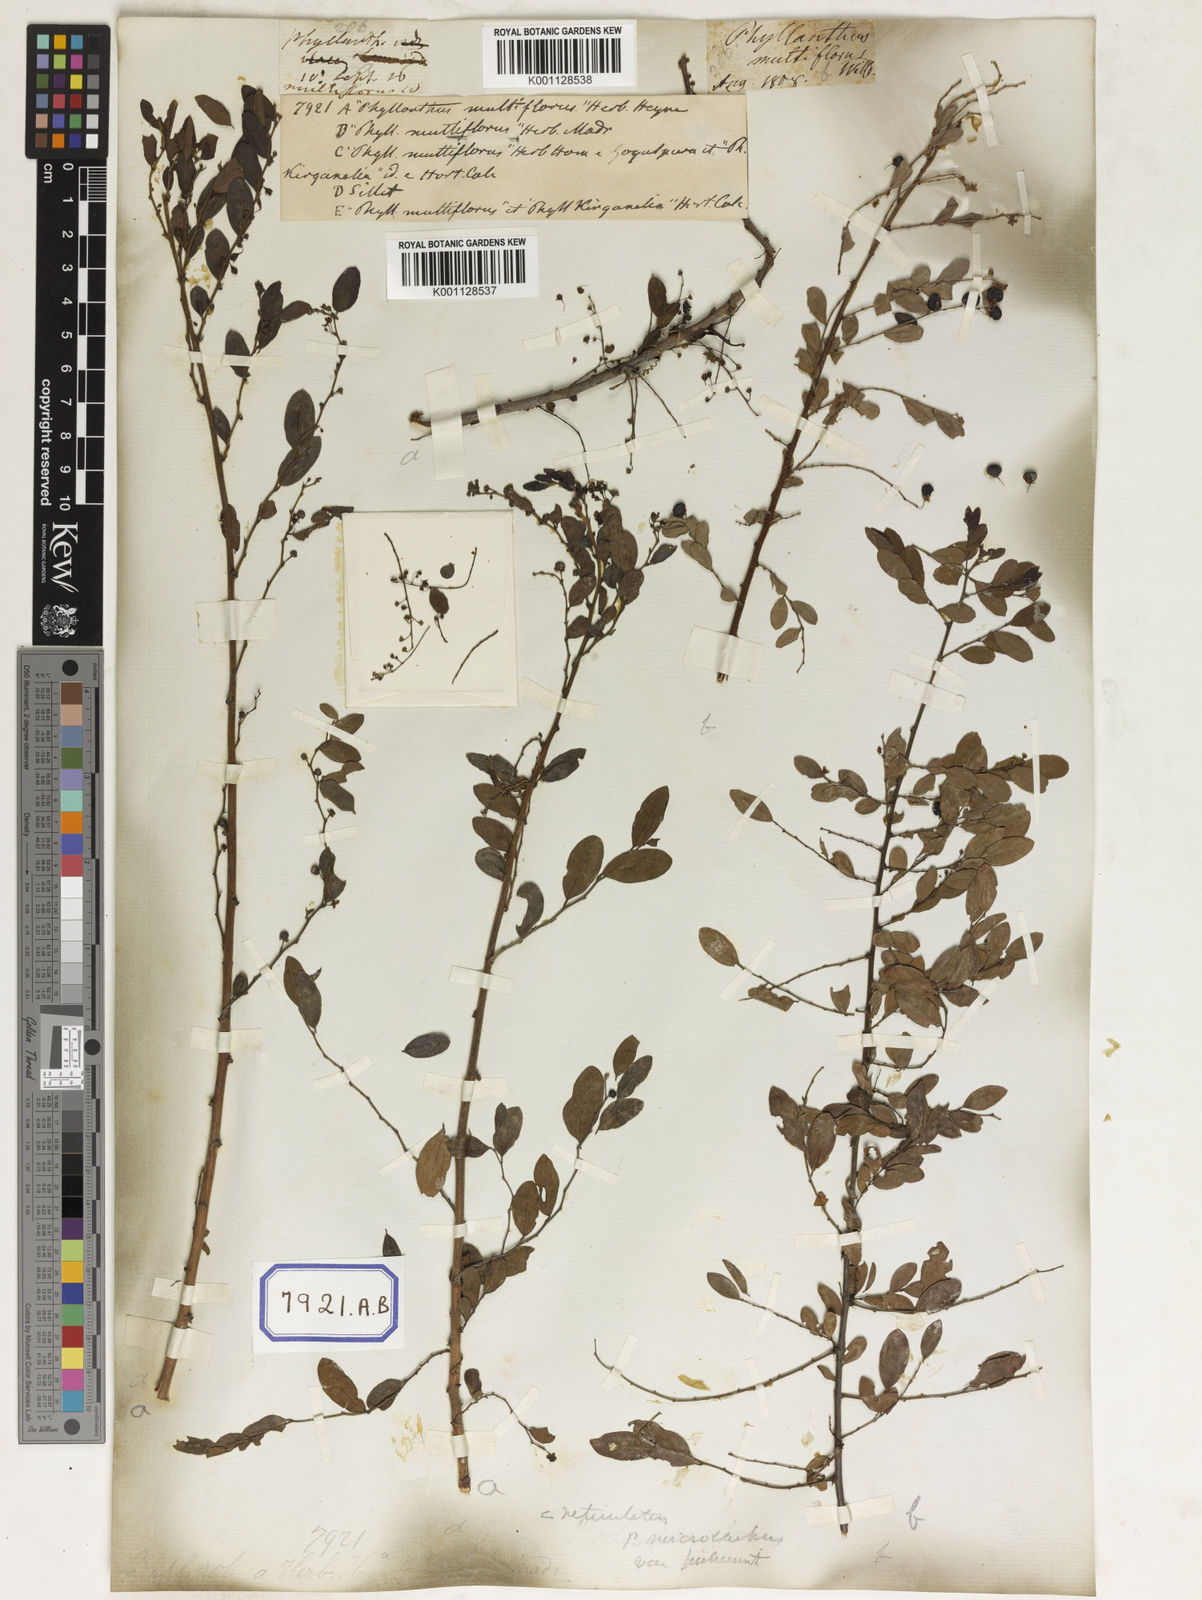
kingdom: Plantae
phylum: Tracheophyta
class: Magnoliopsida
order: Malpighiales
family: Euphorbiaceae
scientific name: Euphorbiaceae
